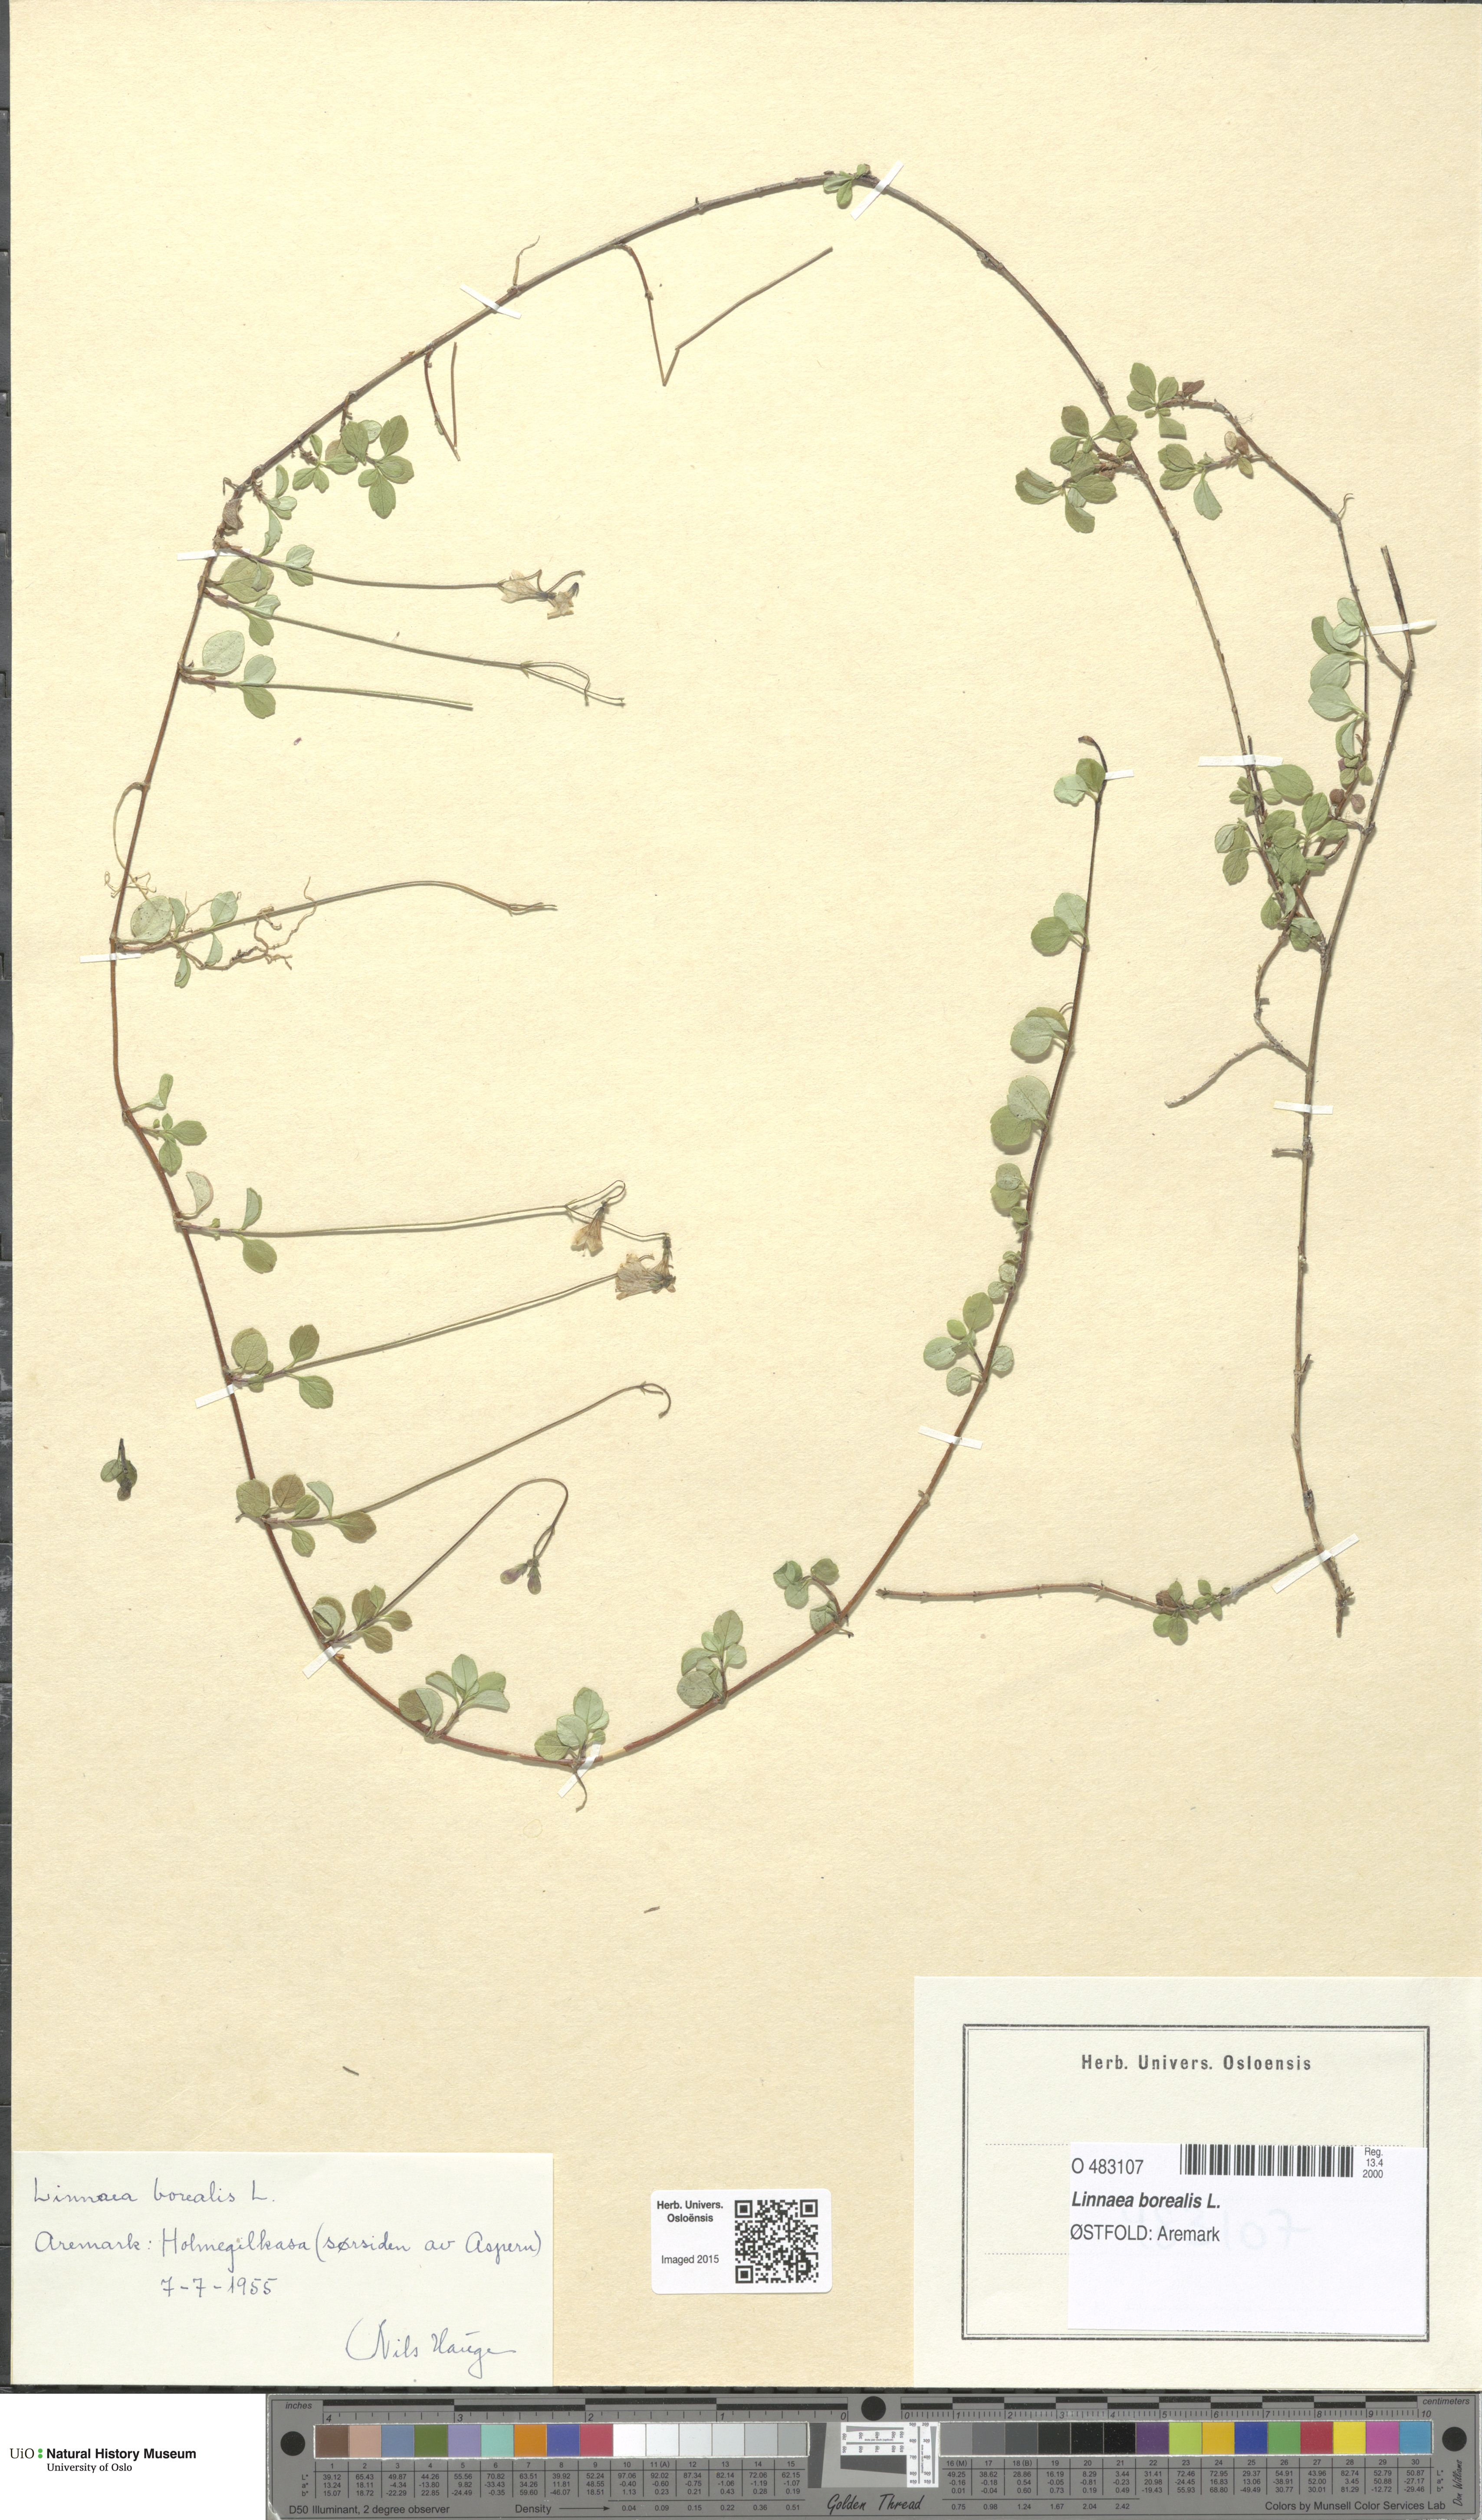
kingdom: Plantae
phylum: Tracheophyta
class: Magnoliopsida
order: Dipsacales
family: Caprifoliaceae
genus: Linnaea
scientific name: Linnaea borealis
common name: Twinflower
